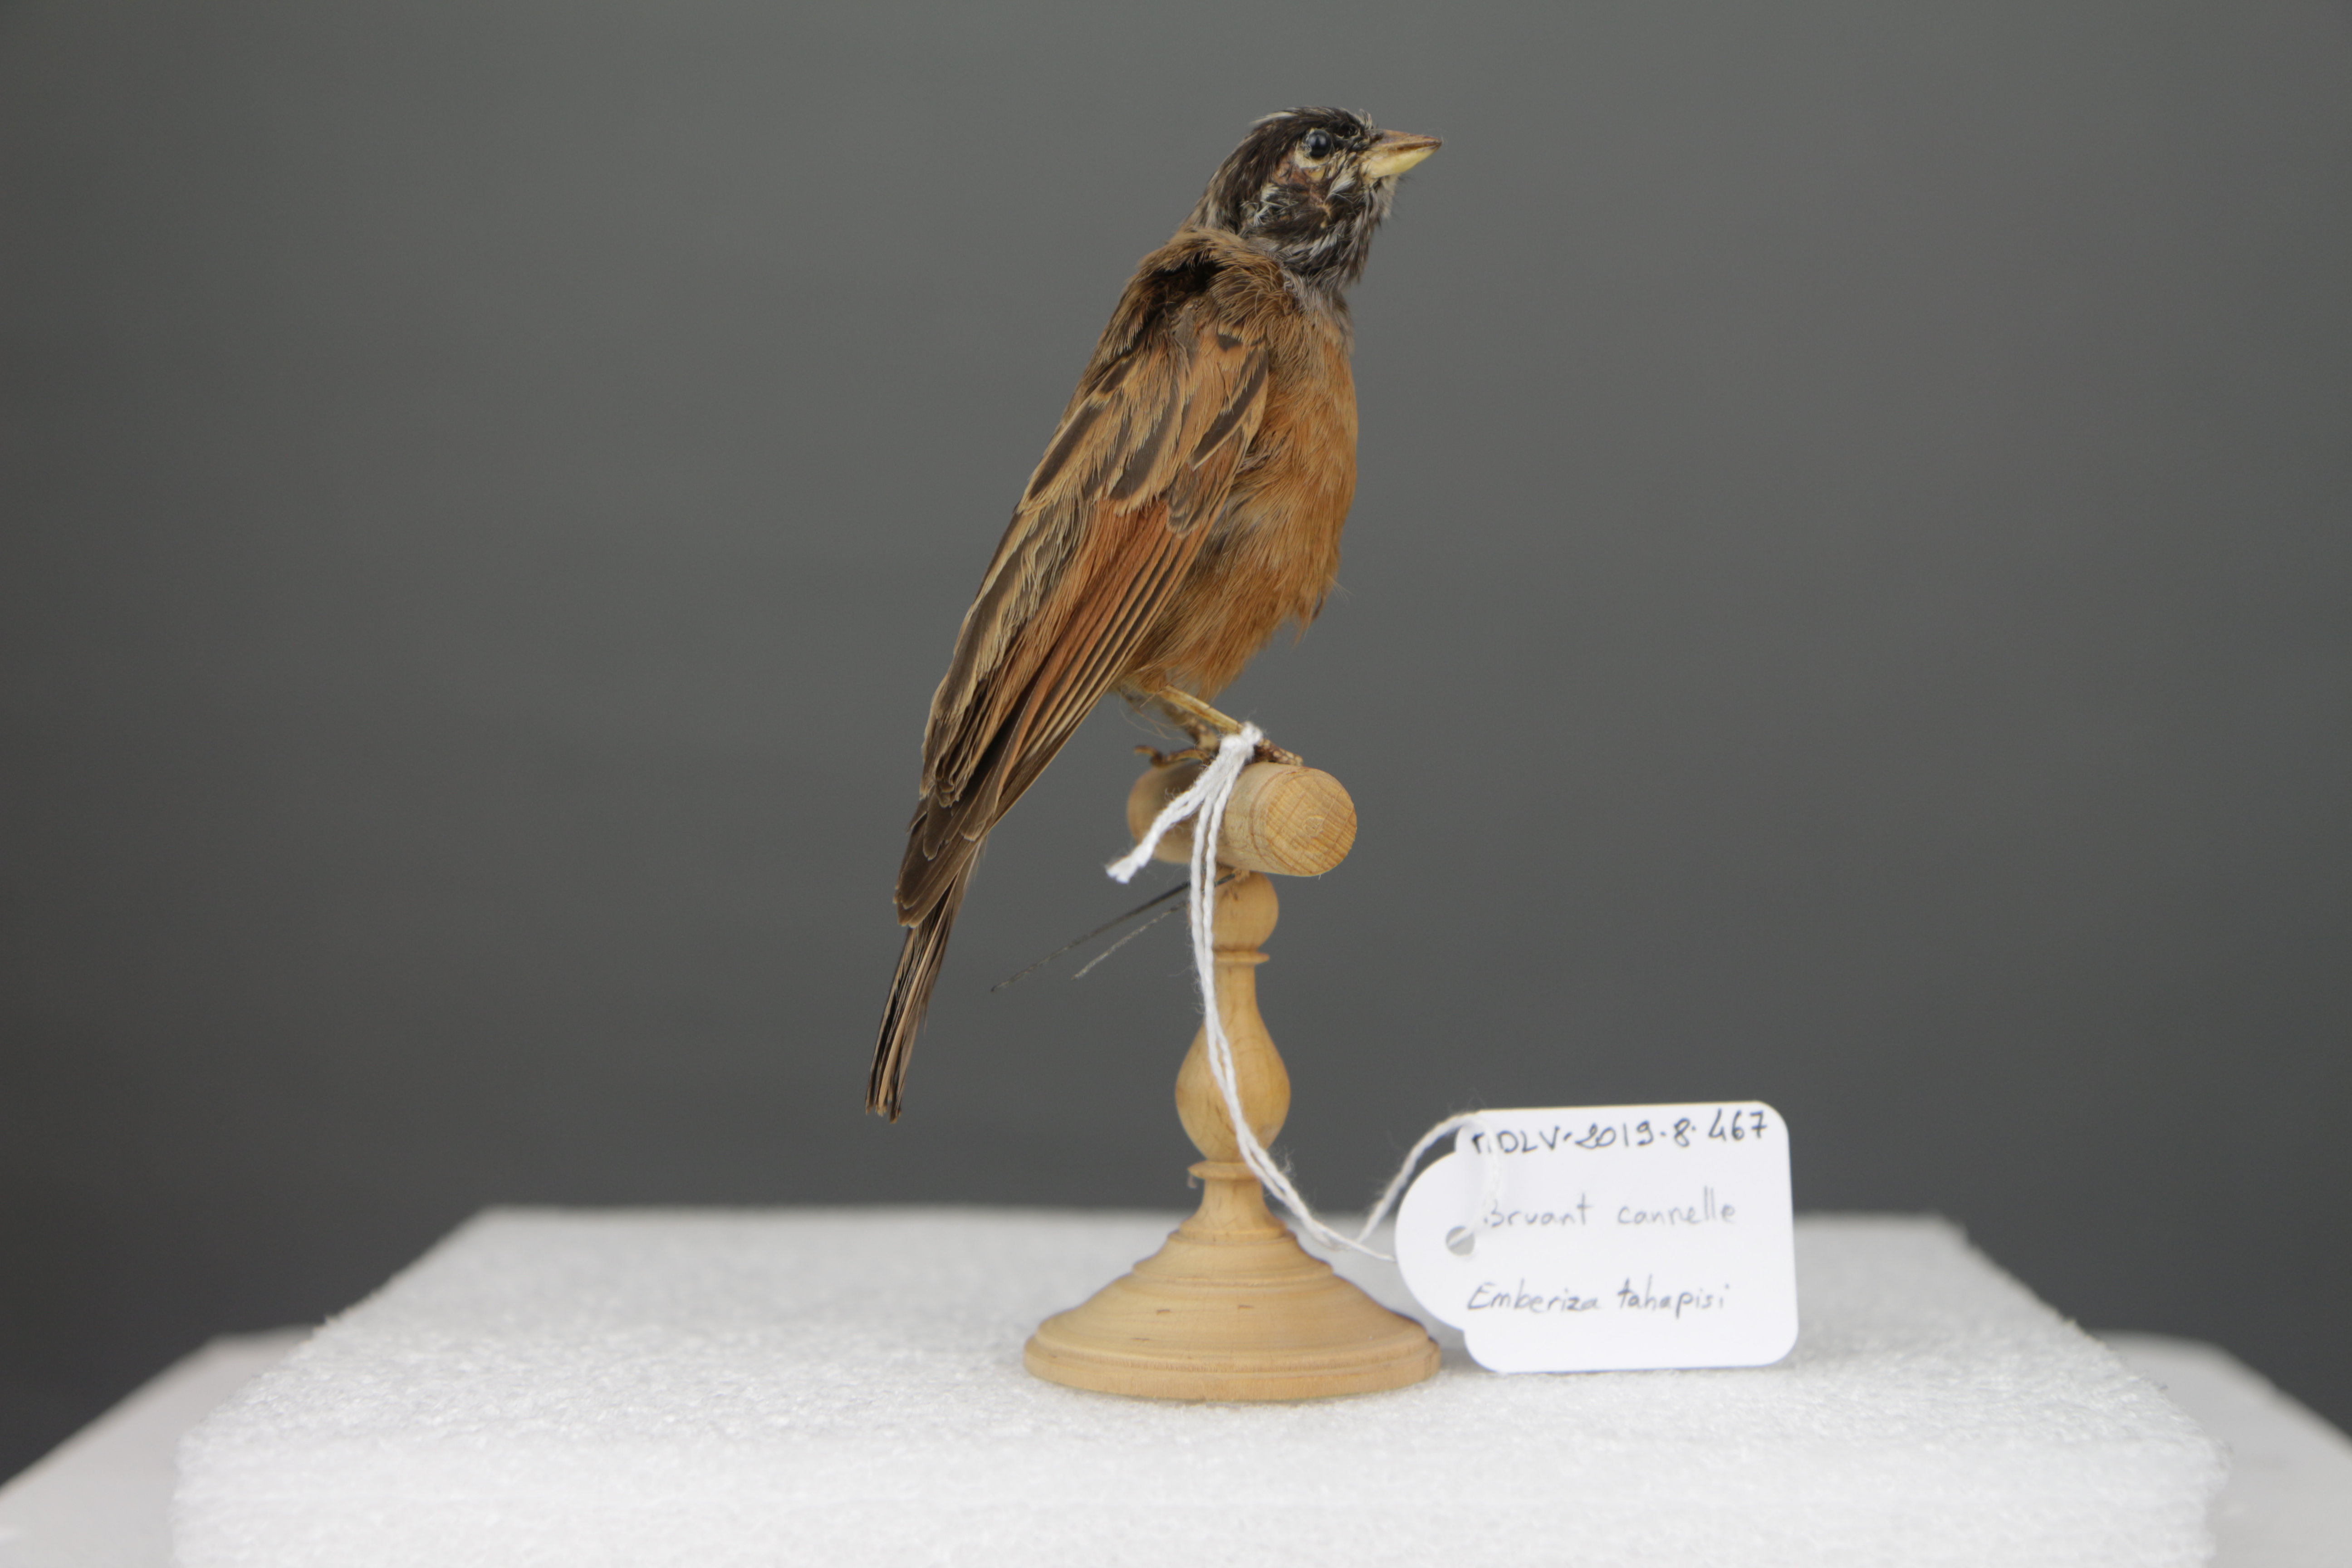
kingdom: Animalia
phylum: Chordata
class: Aves
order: Passeriformes
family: Emberizidae
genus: Emberiza
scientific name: Emberiza tahapisi
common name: Cinnamon-breasted bunting
